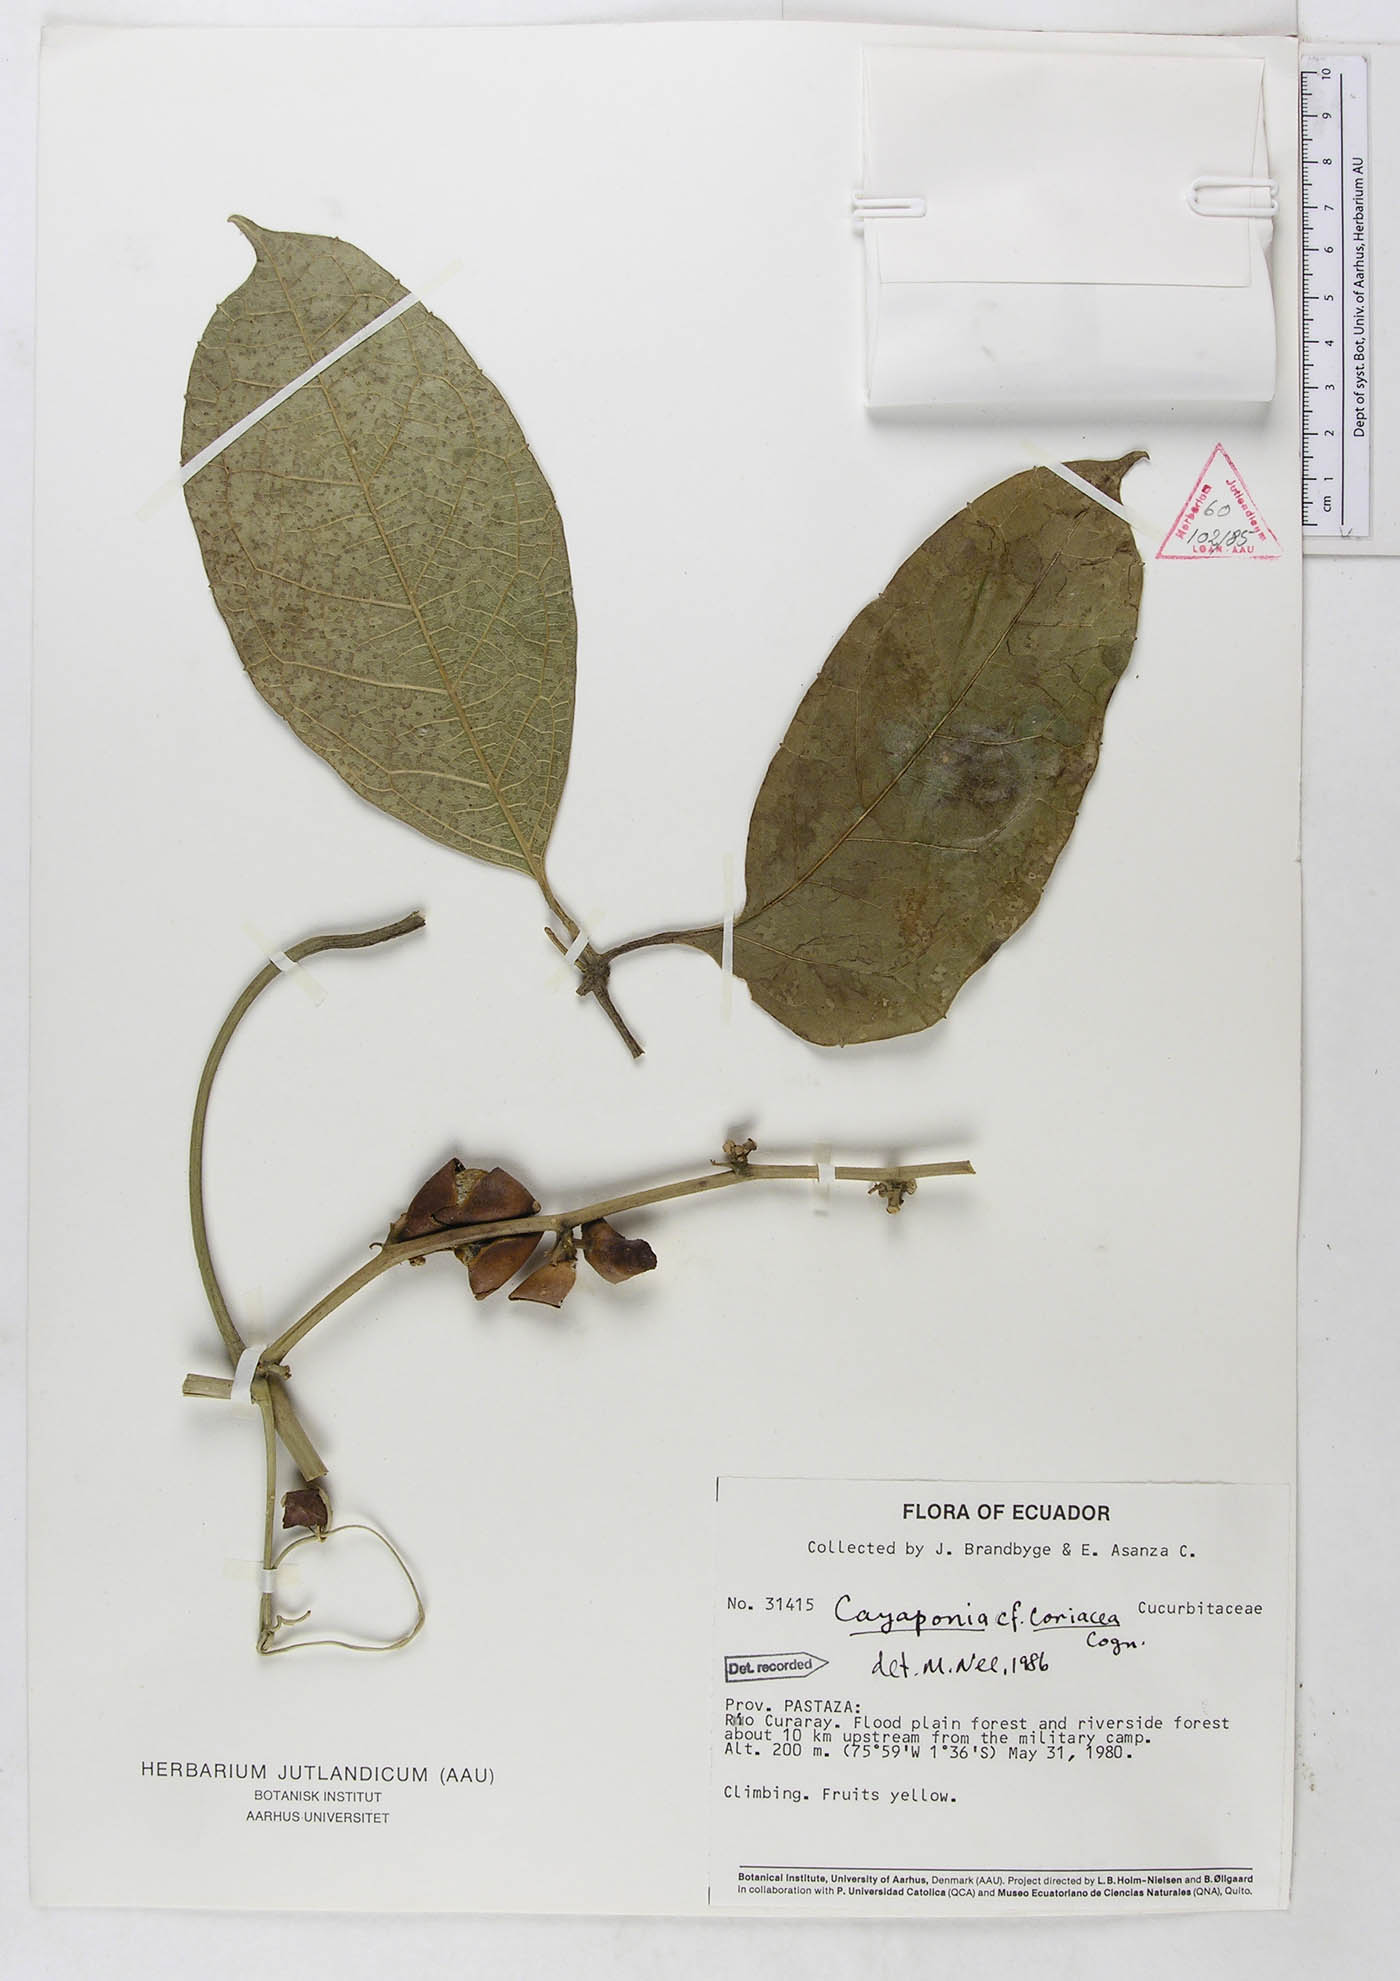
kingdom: Plantae
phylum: Tracheophyta
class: Magnoliopsida
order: Cucurbitales
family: Cucurbitaceae
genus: Cayaponia
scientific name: Cayaponia coriacea
